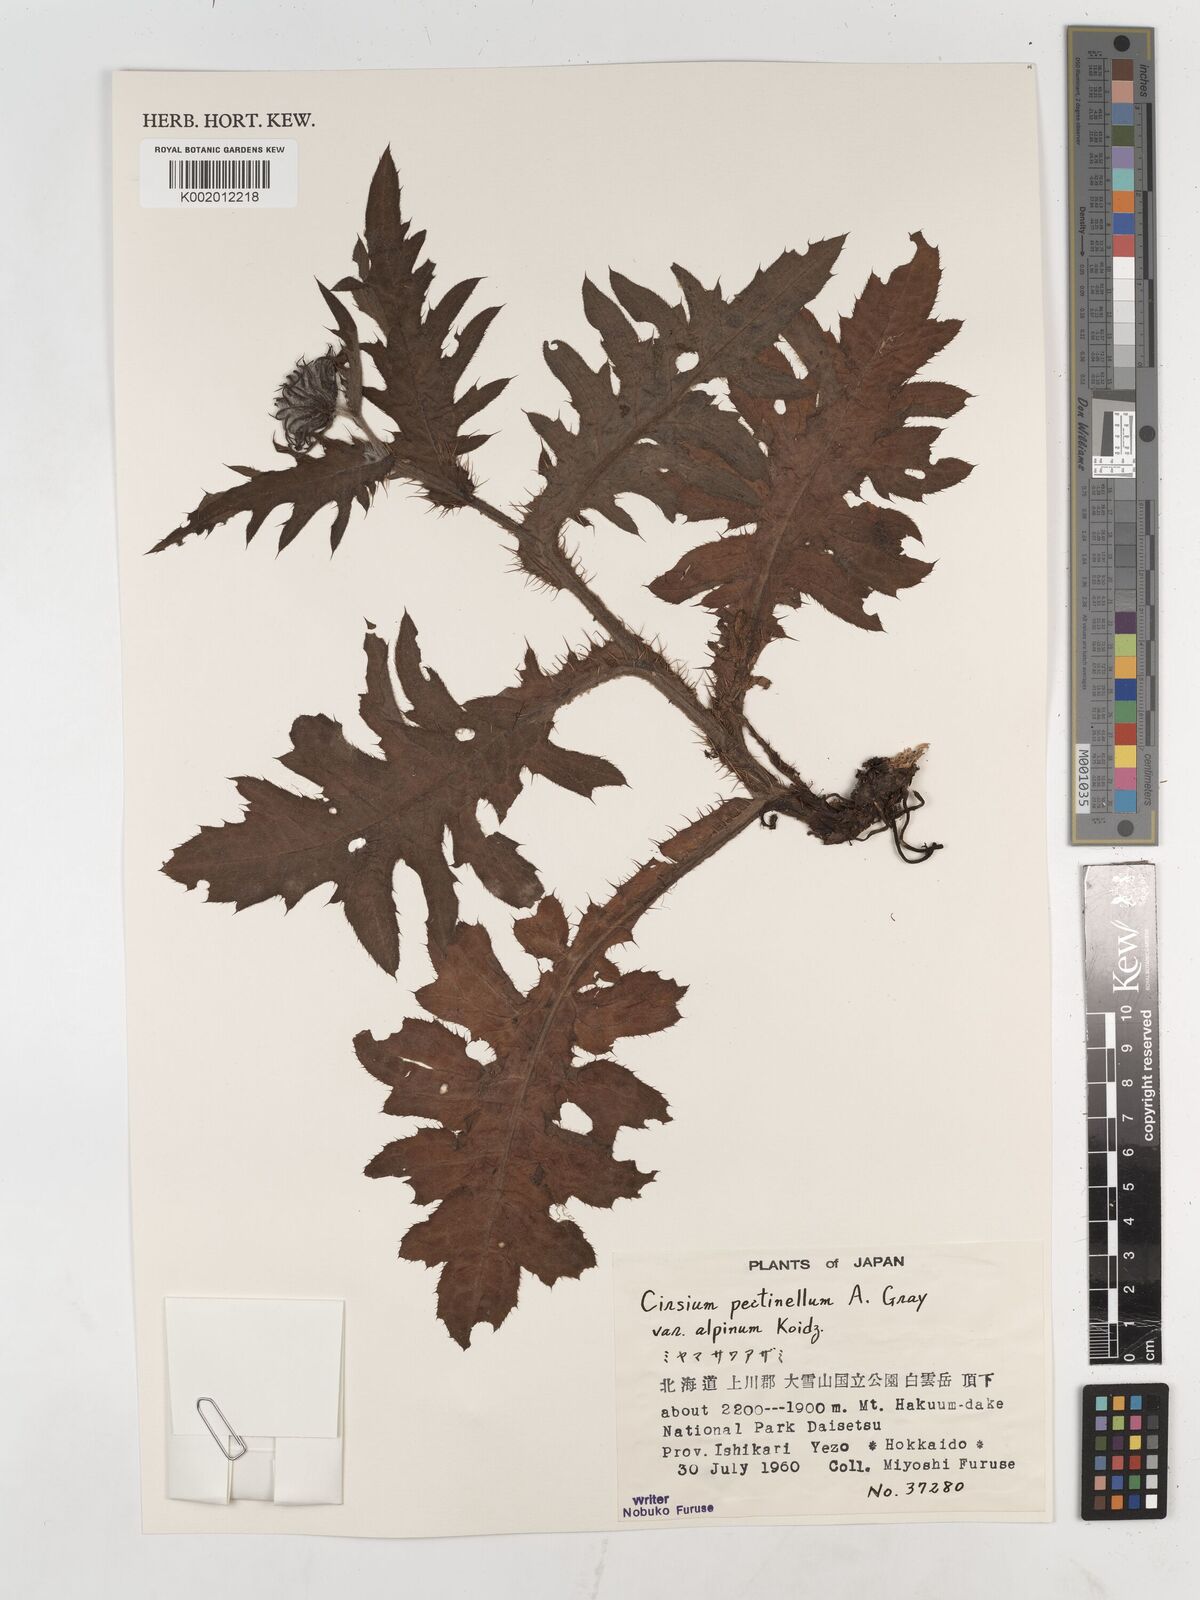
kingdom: Plantae
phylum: Tracheophyta
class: Magnoliopsida
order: Asterales
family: Asteraceae
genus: Cirsium
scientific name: Cirsium pectinellum
